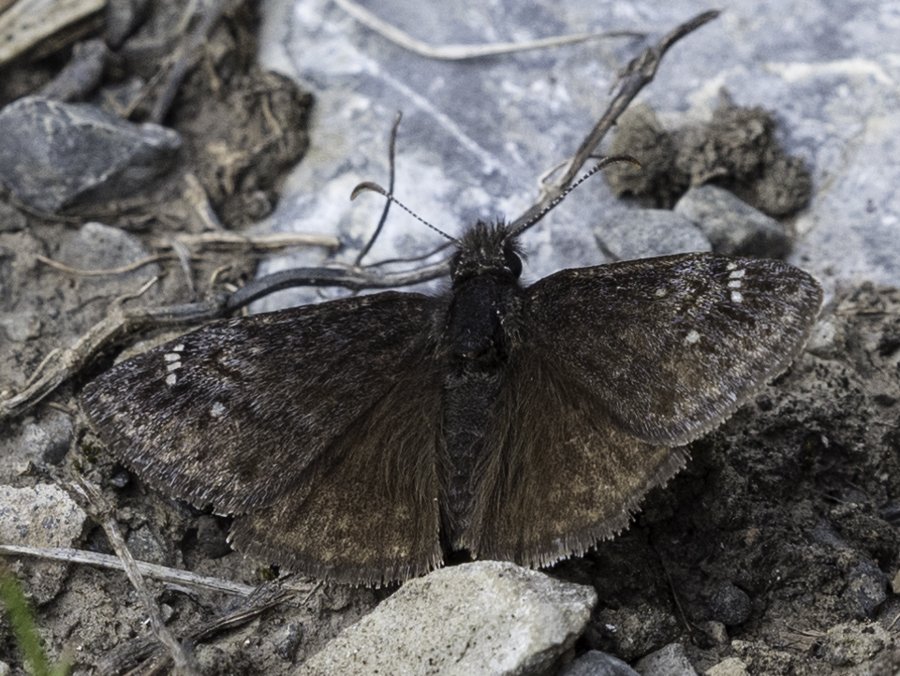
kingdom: Animalia
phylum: Arthropoda
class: Insecta
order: Lepidoptera
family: Hesperiidae
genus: Gesta
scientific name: Gesta
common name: Persius Duskywing
